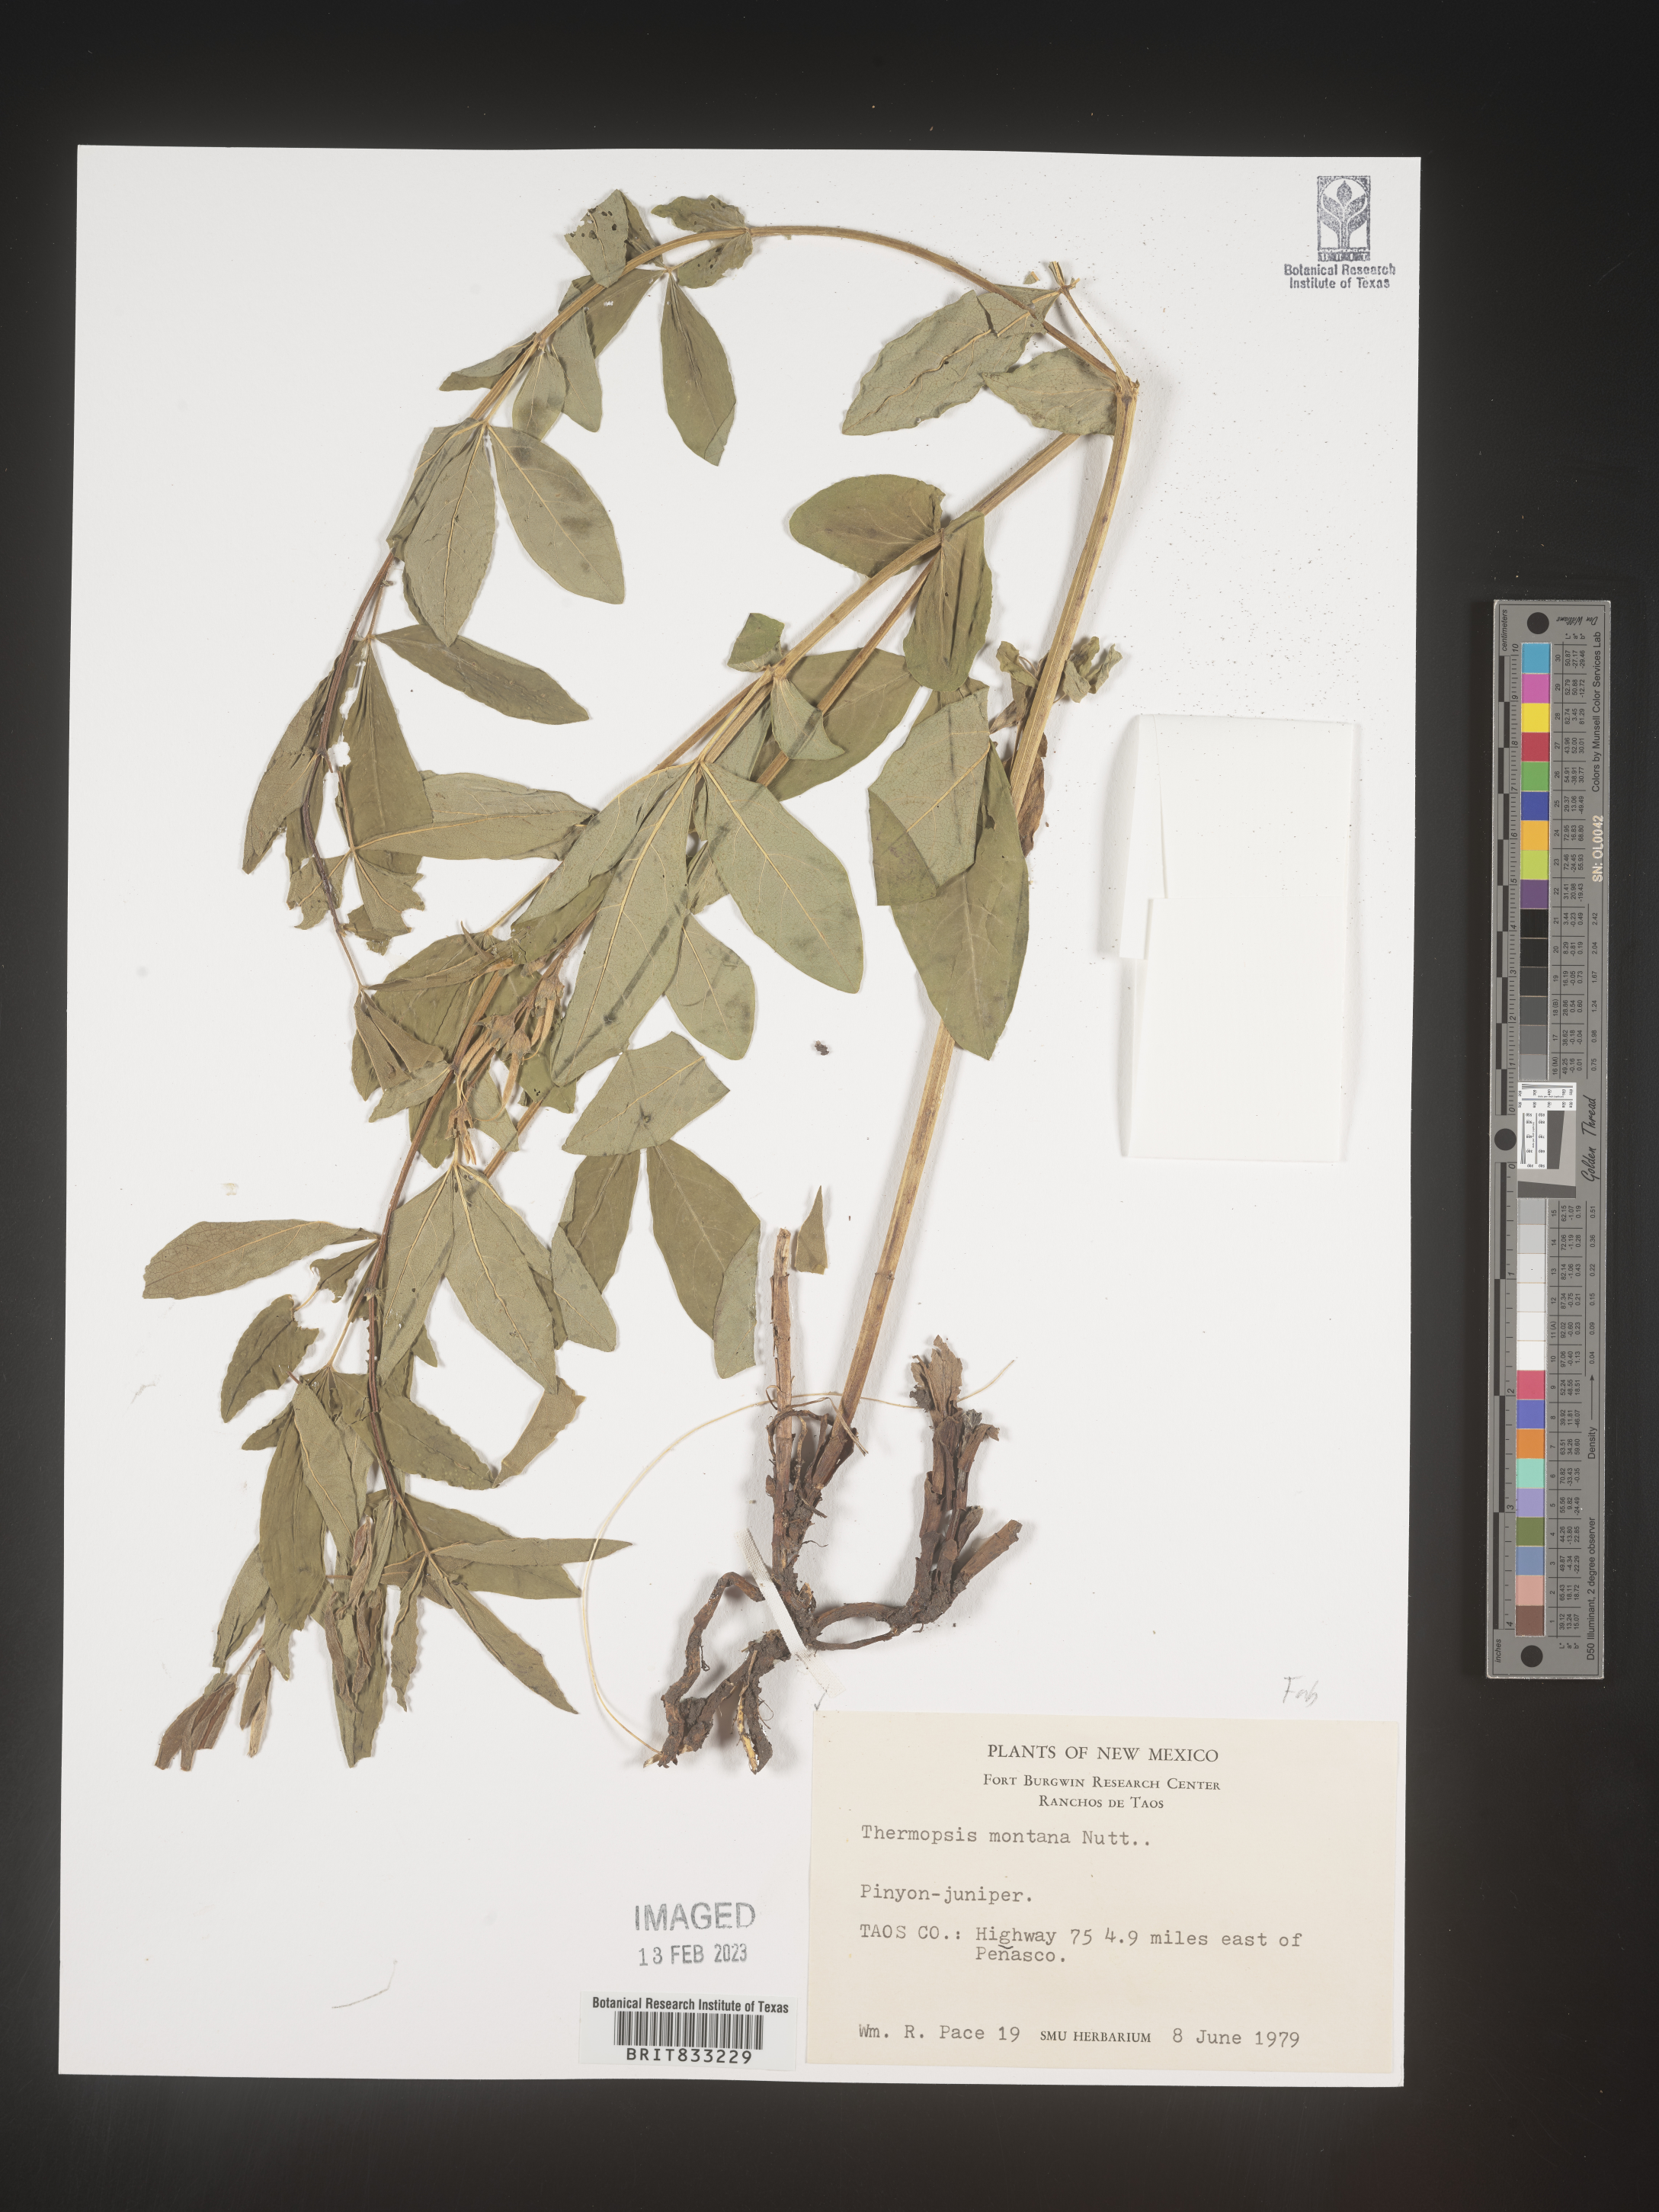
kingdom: Plantae
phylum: Tracheophyta
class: Magnoliopsida
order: Fabales
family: Fabaceae
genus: Thermopsis
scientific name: Thermopsis montana
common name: False lupin
